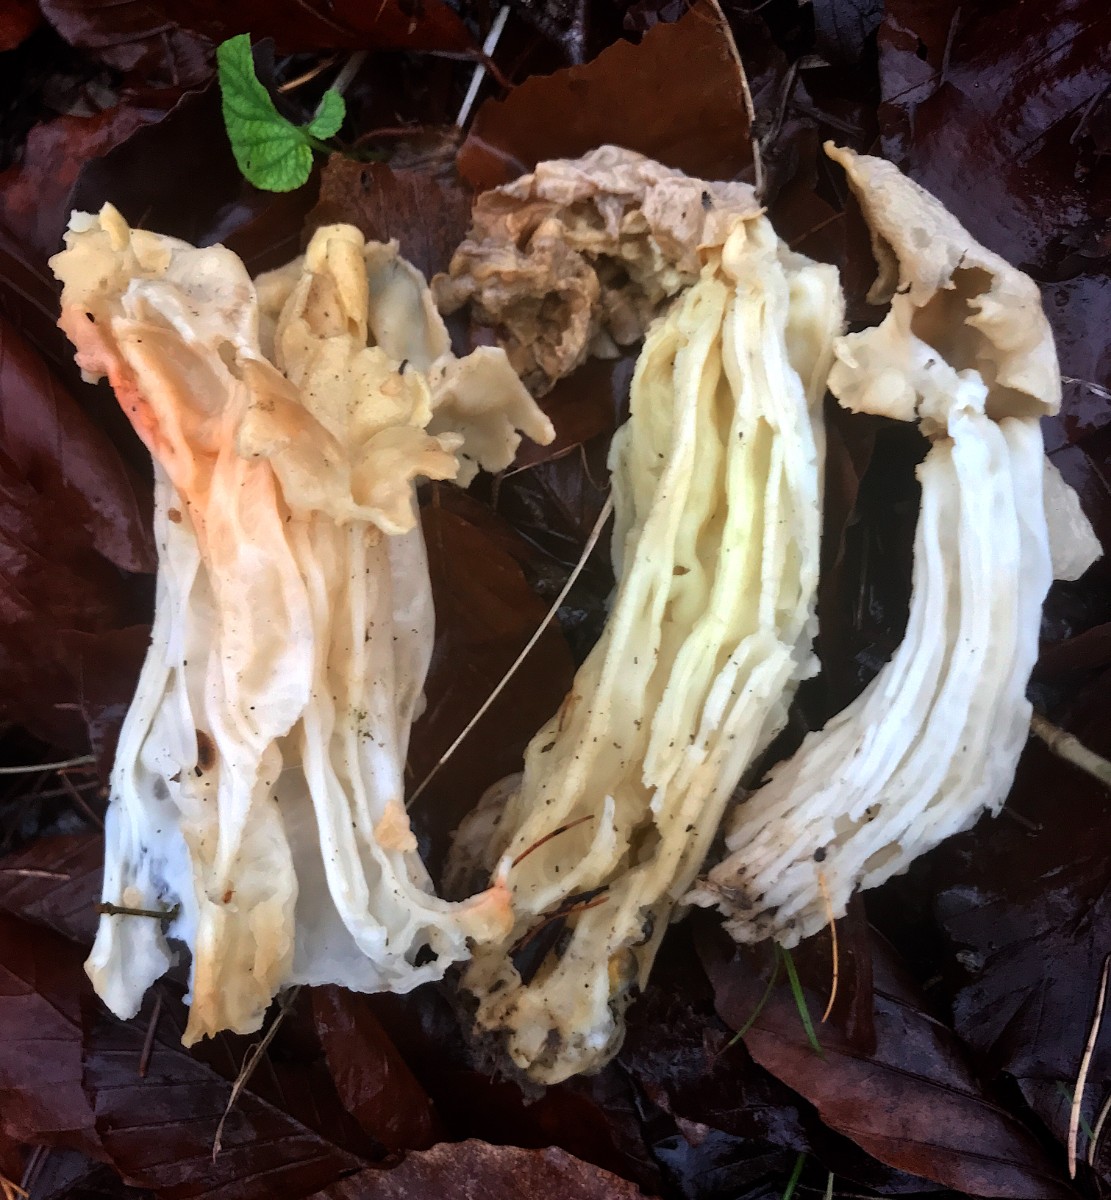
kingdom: Fungi
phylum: Ascomycota
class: Pezizomycetes
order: Pezizales
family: Helvellaceae
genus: Helvella
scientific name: Helvella crispa
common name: kruset foldhat
